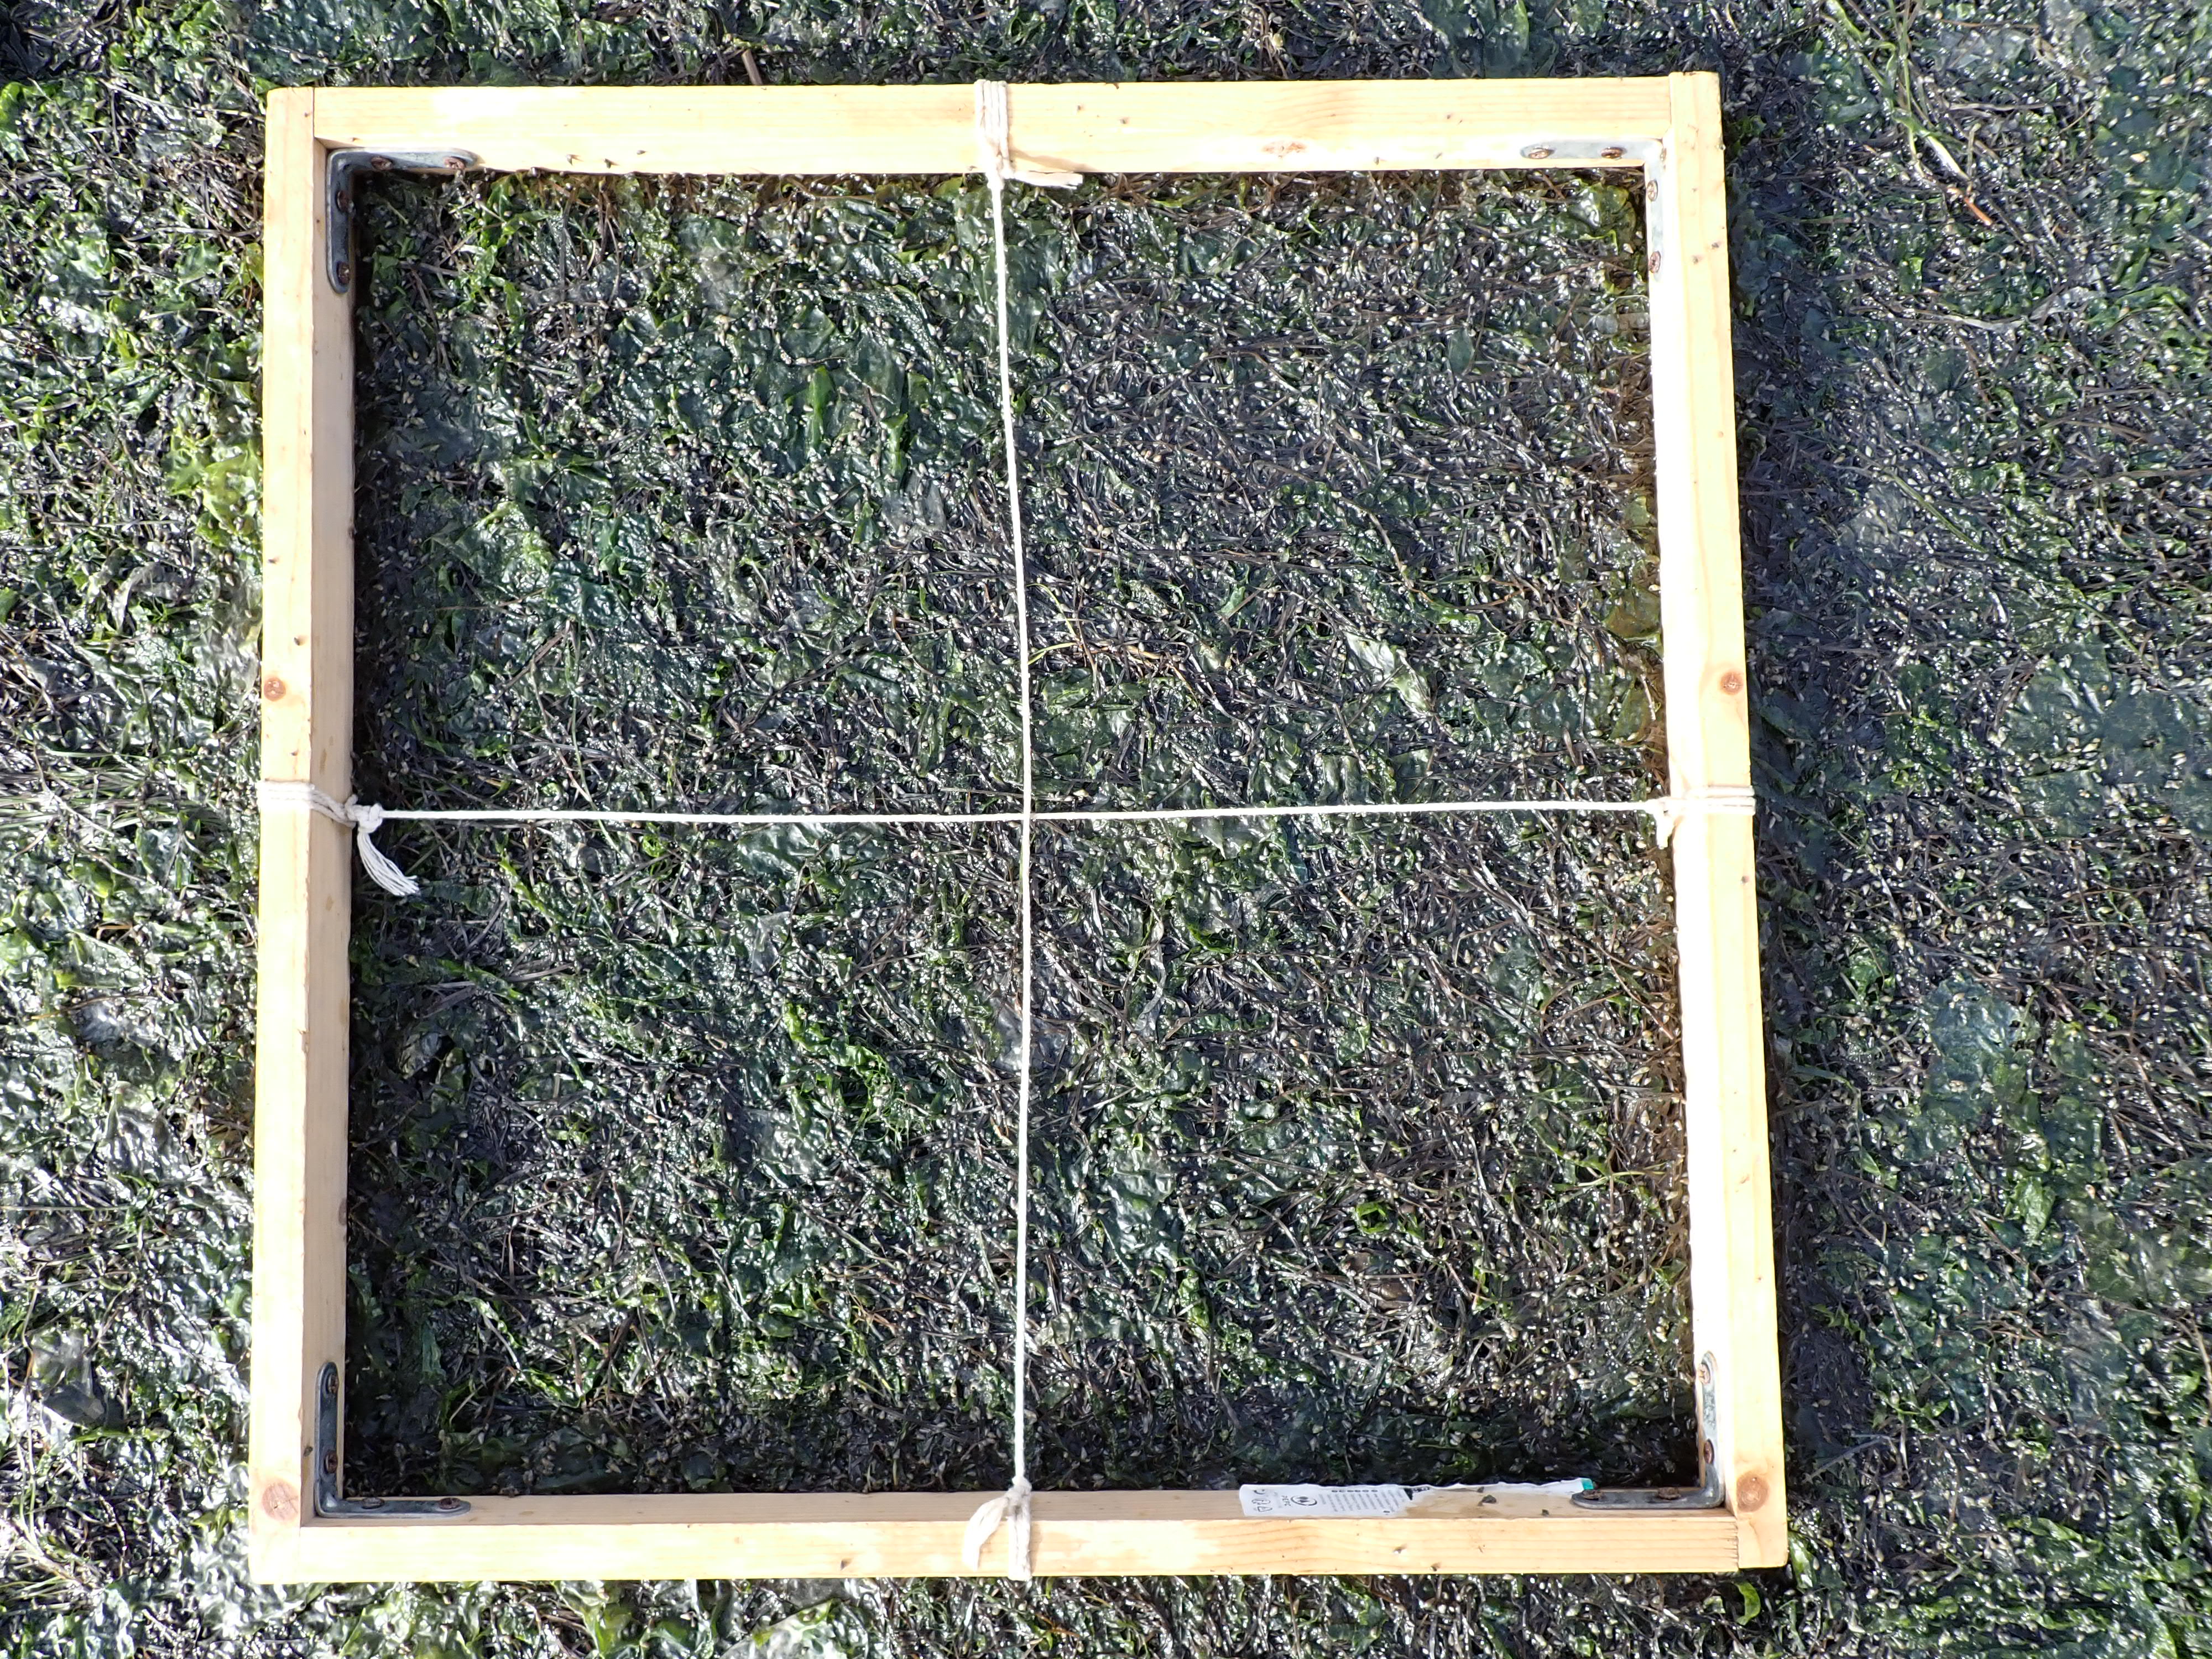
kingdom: Plantae
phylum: Tracheophyta
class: Liliopsida
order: Alismatales
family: Zosteraceae
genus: Zostera
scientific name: Zostera noltii
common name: Dwarf eelgrass
